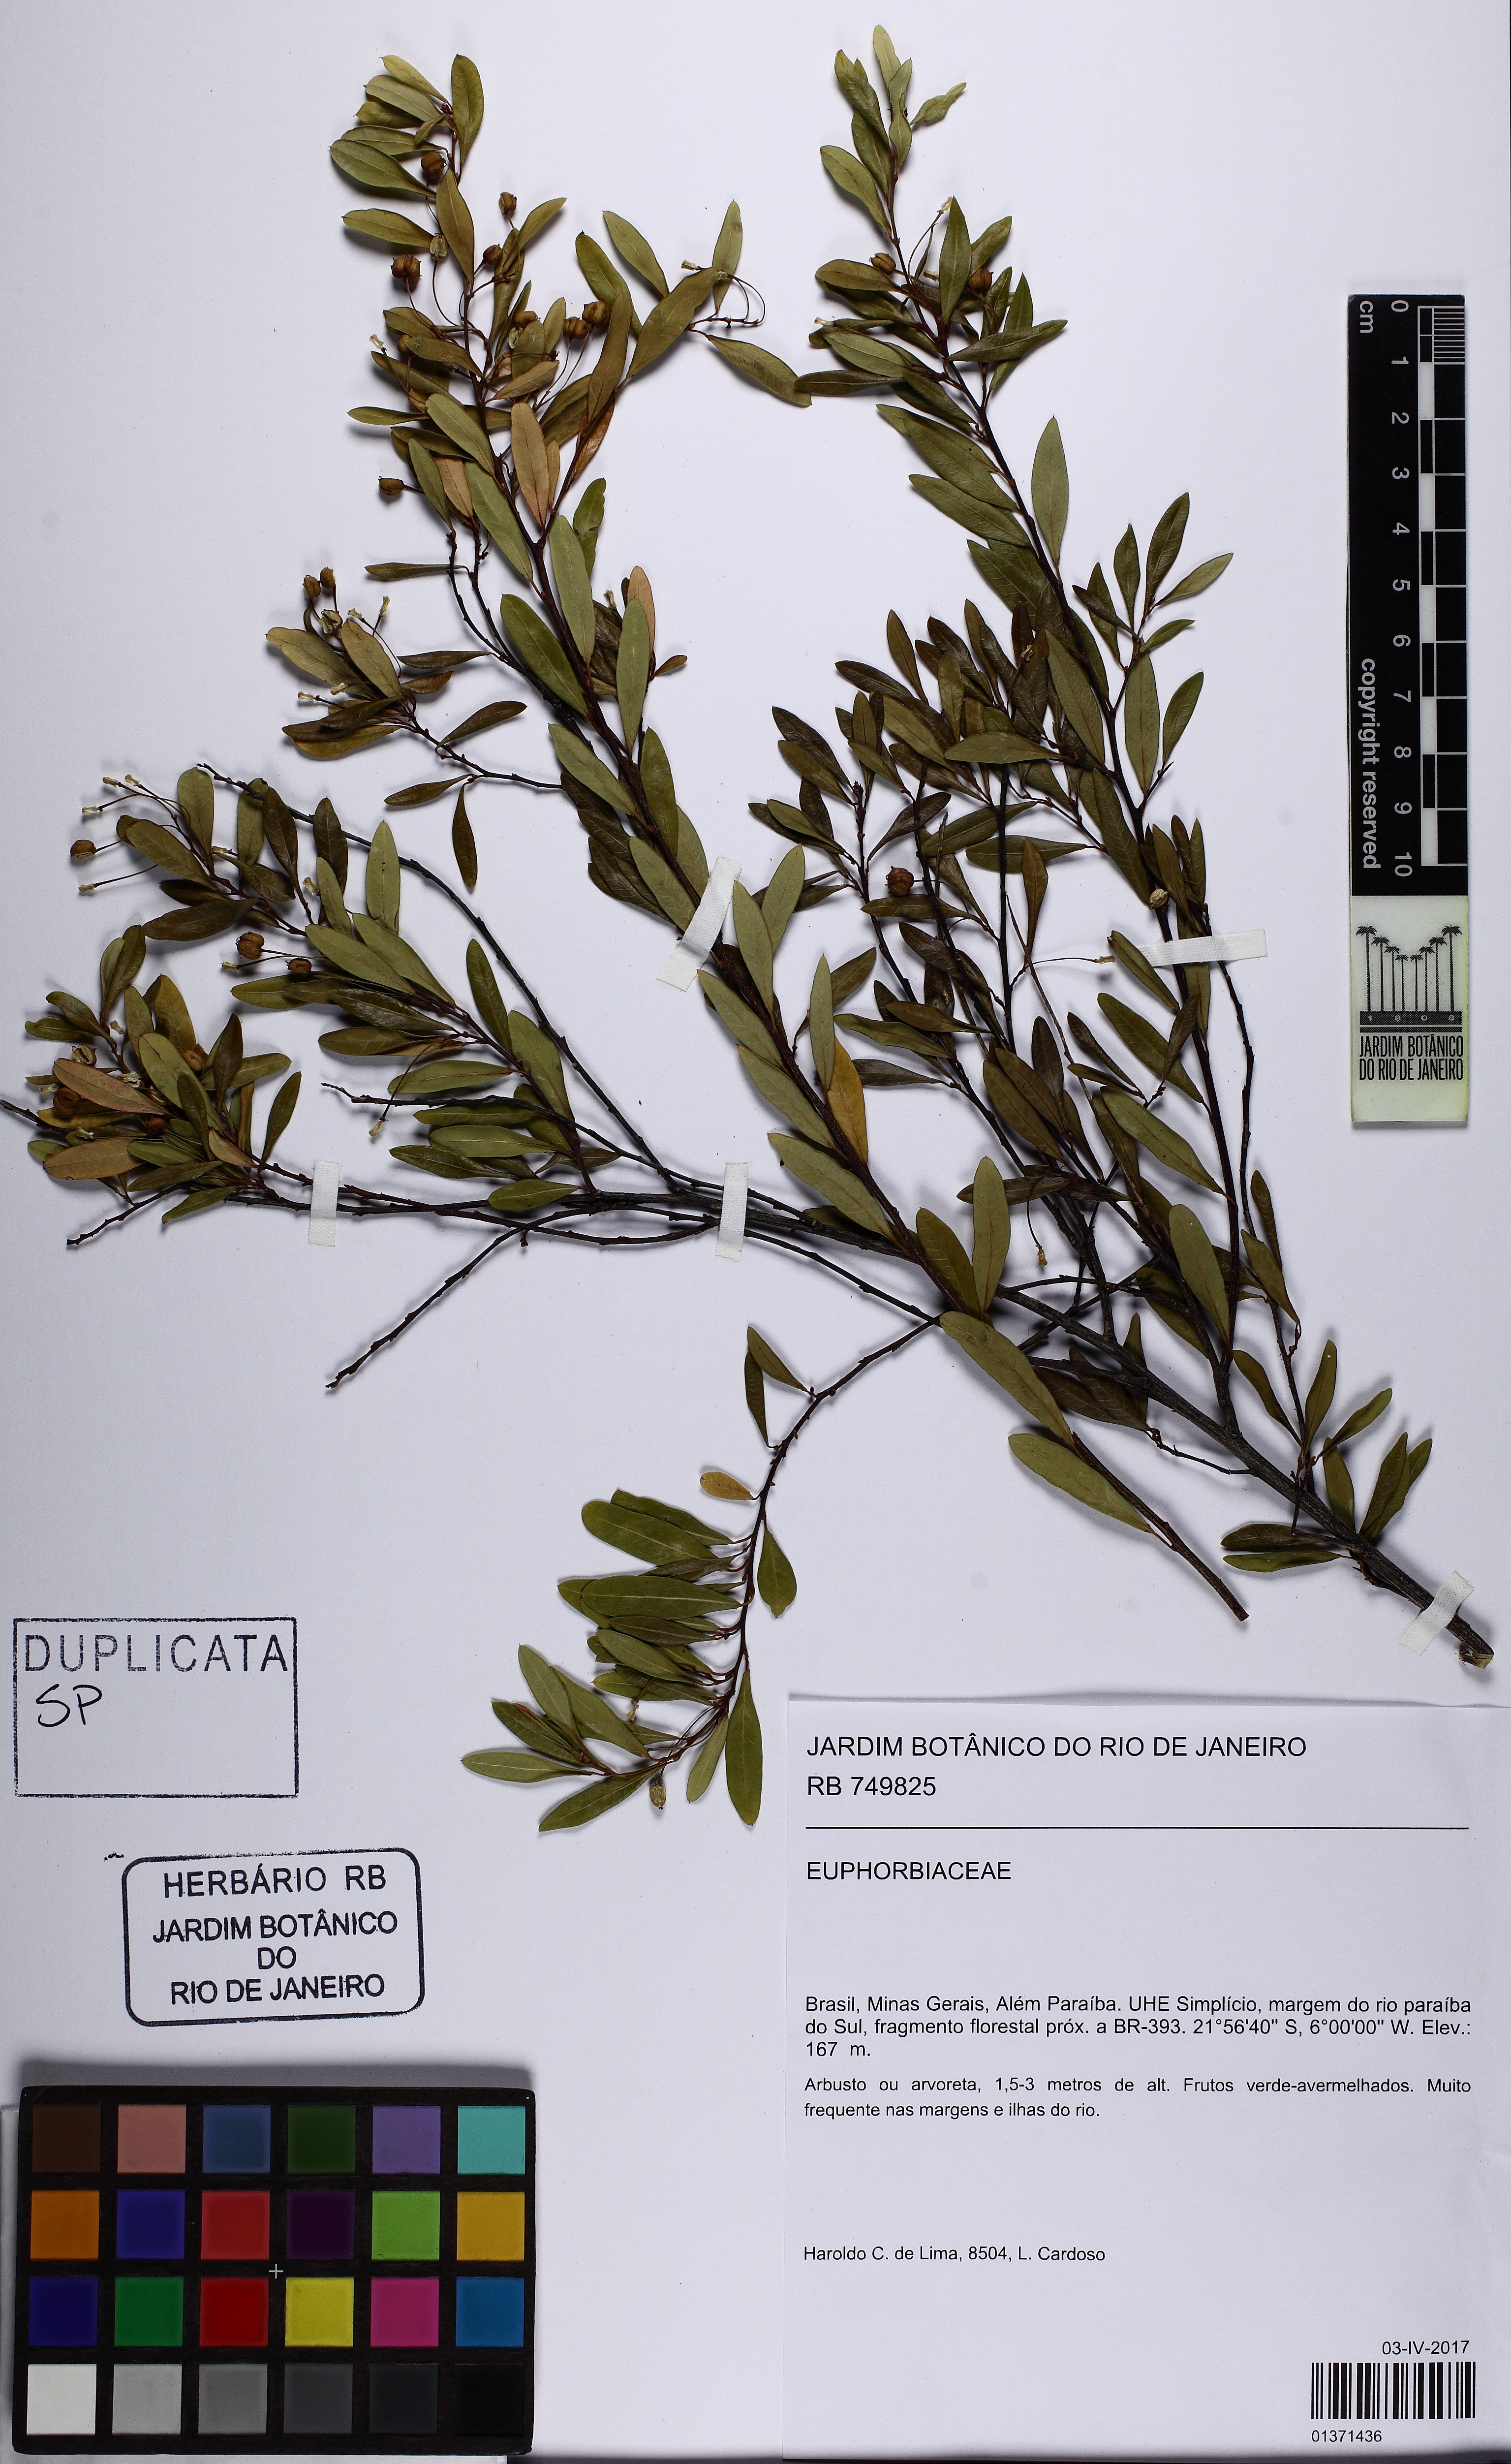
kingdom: Plantae
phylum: Tracheophyta
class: Magnoliopsida
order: Malpighiales
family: Euphorbiaceae
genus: Sebastiania
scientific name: Sebastiania schottiana
